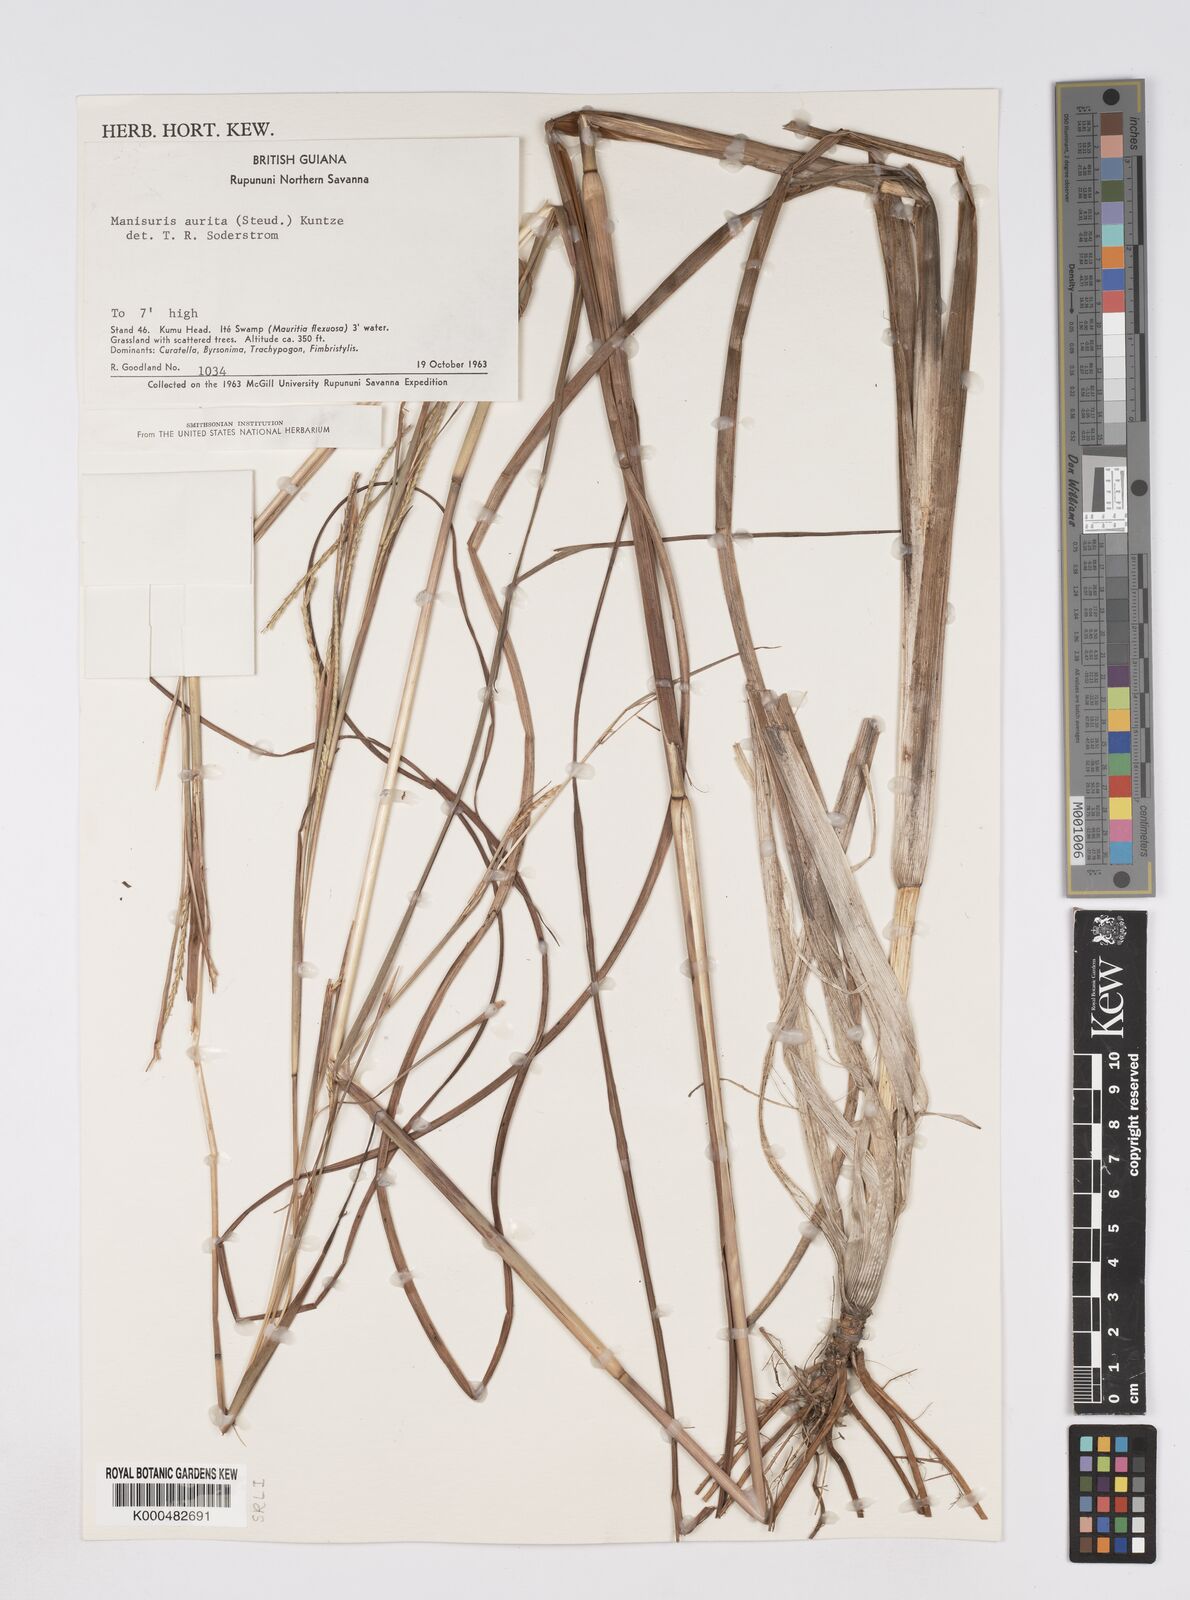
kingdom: Plantae
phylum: Tracheophyta
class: Liliopsida
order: Poales
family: Poaceae
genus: Rottboellia
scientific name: Rottboellia aurita
